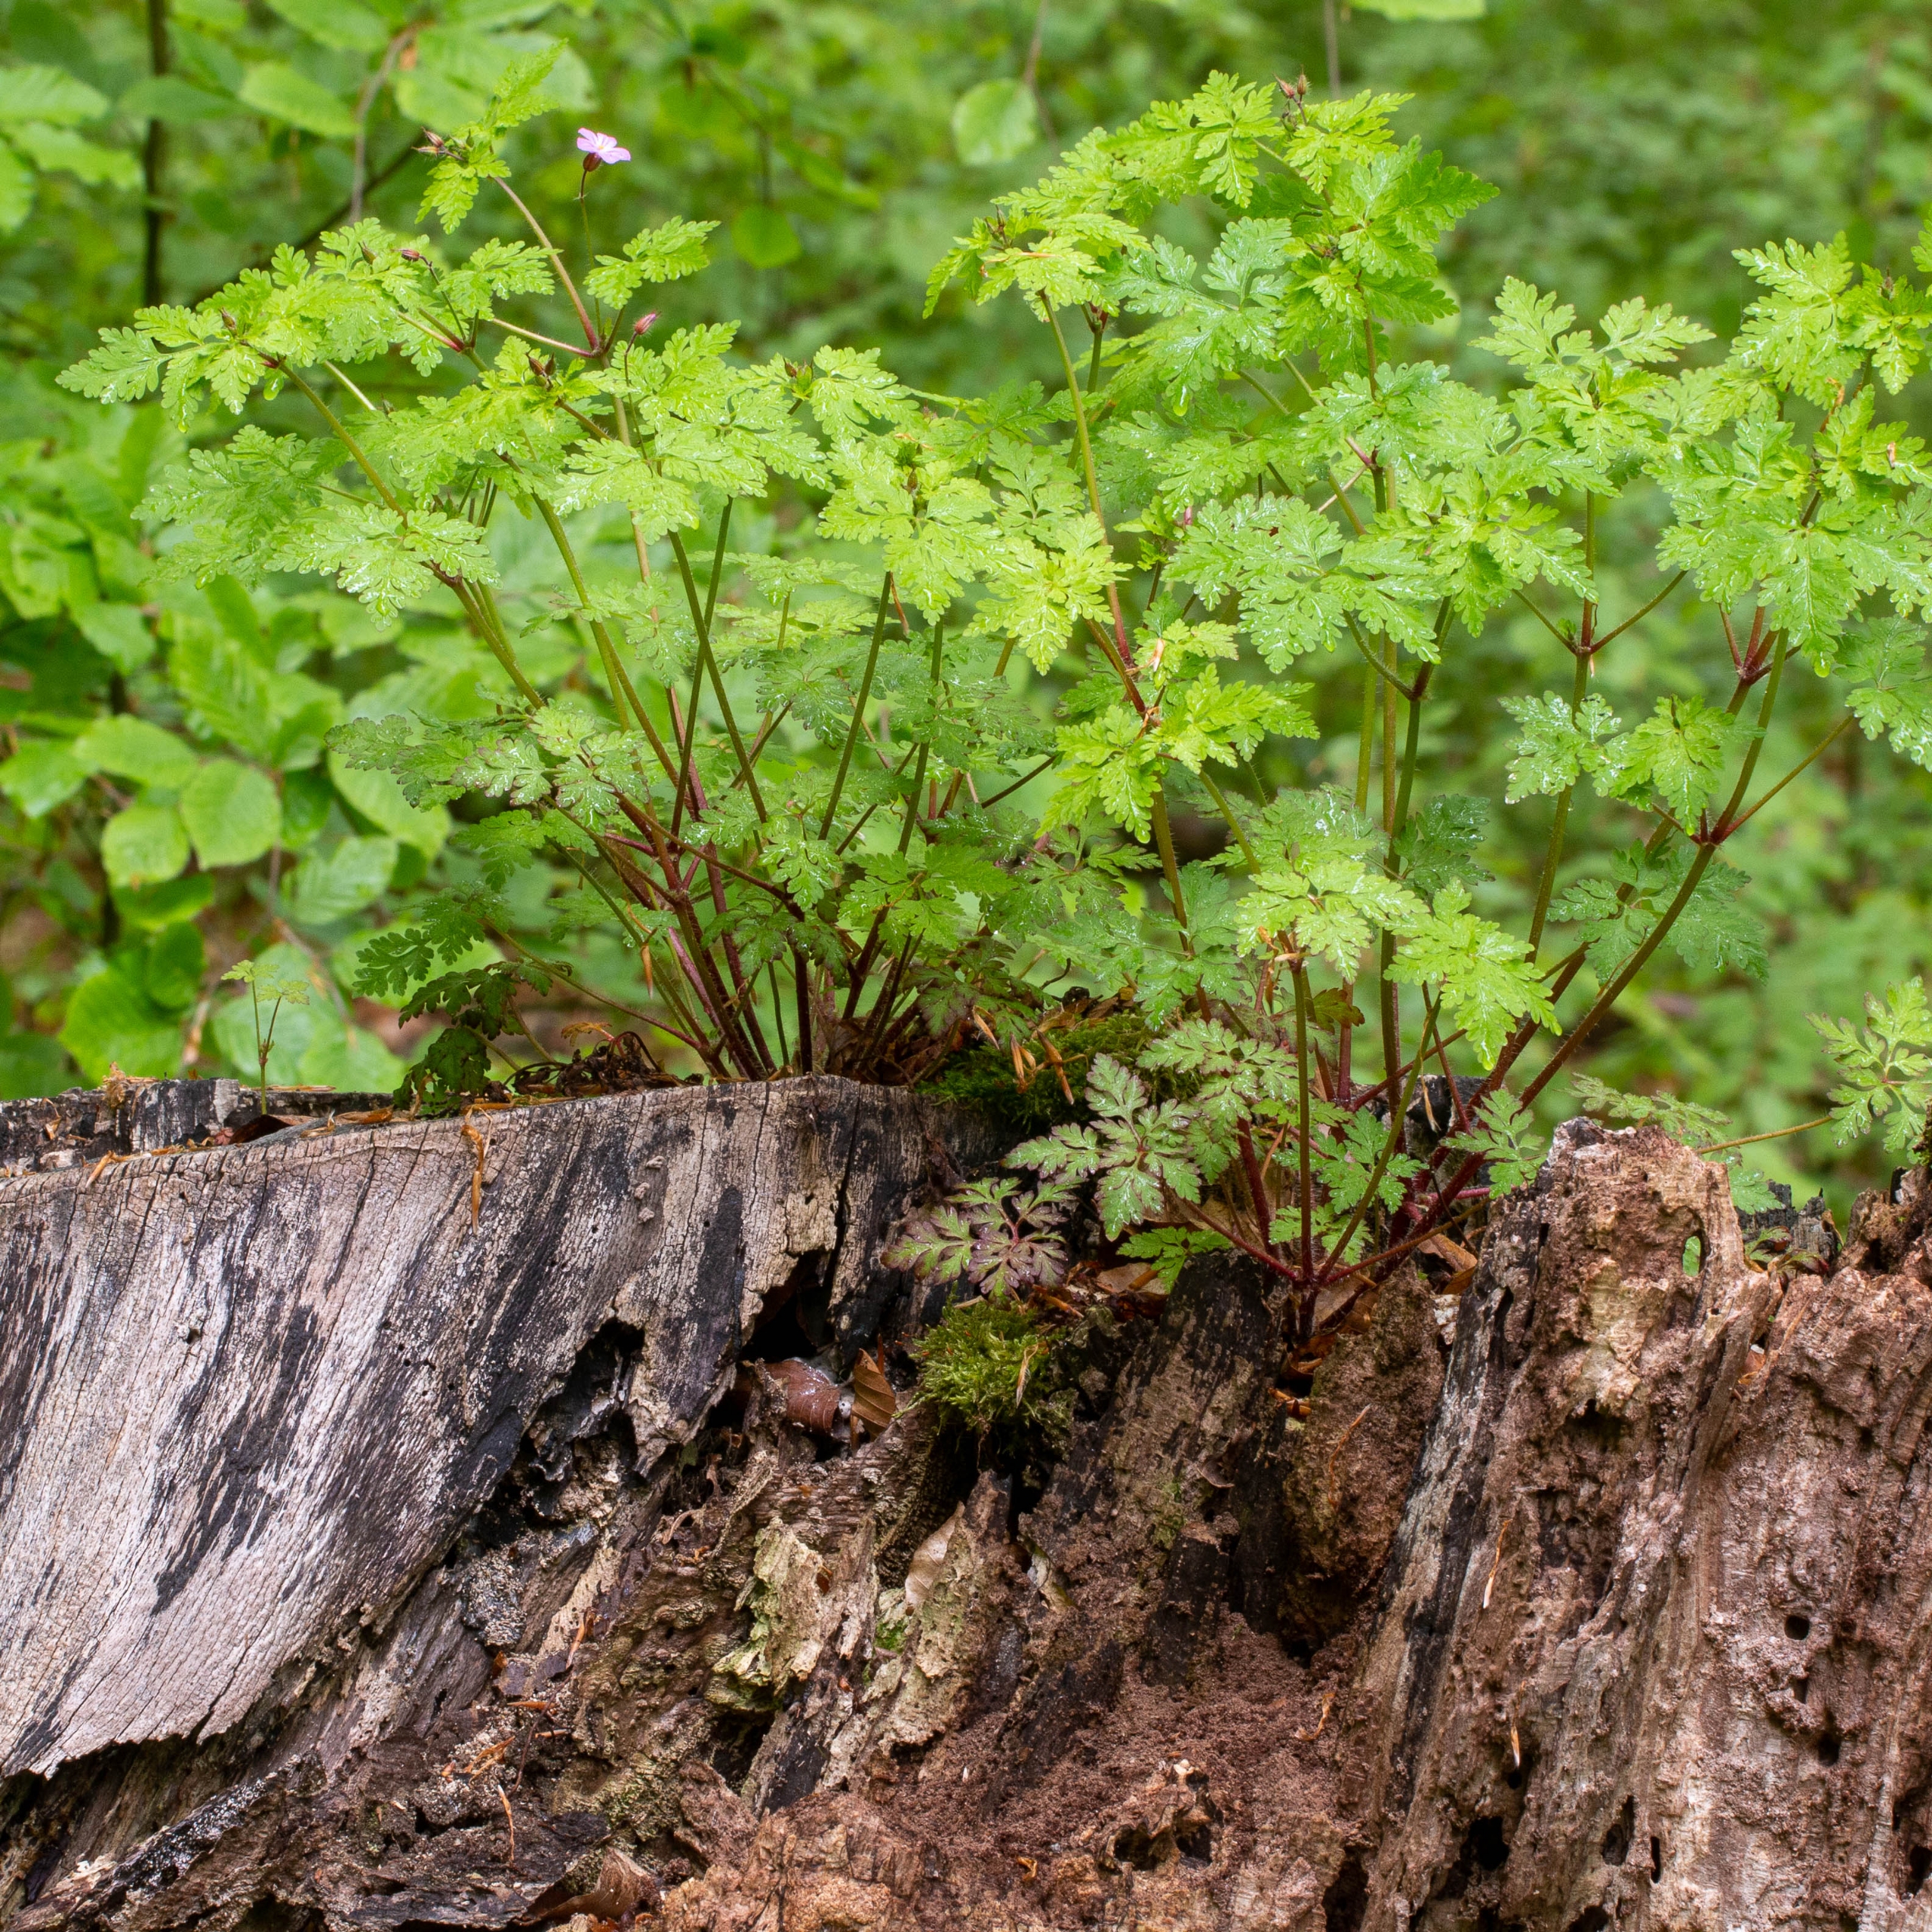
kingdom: Plantae
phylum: Tracheophyta
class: Magnoliopsida
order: Geraniales
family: Geraniaceae
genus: Geranium
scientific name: Geranium robertianum
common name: Stinkende storkenæb
